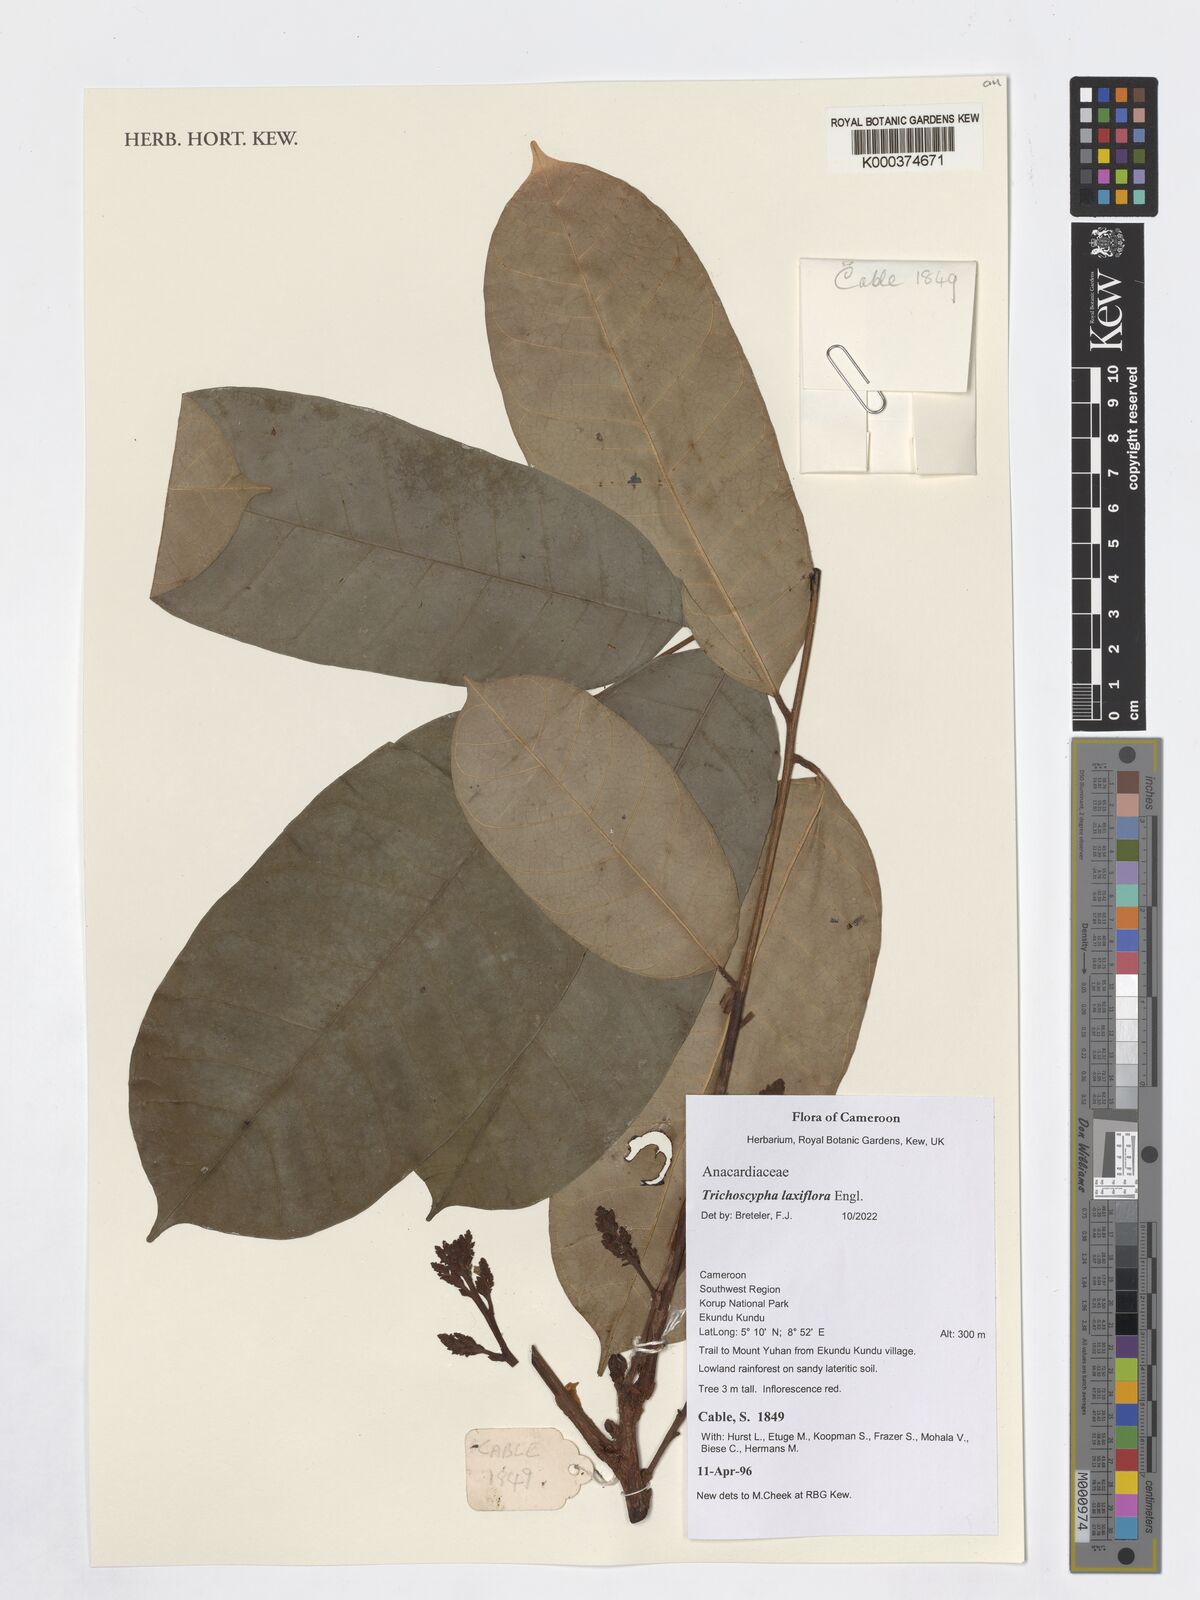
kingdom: Plantae
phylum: Tracheophyta
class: Magnoliopsida
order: Sapindales
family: Anacardiaceae
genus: Trichoscypha
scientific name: Trichoscypha laxiflora
